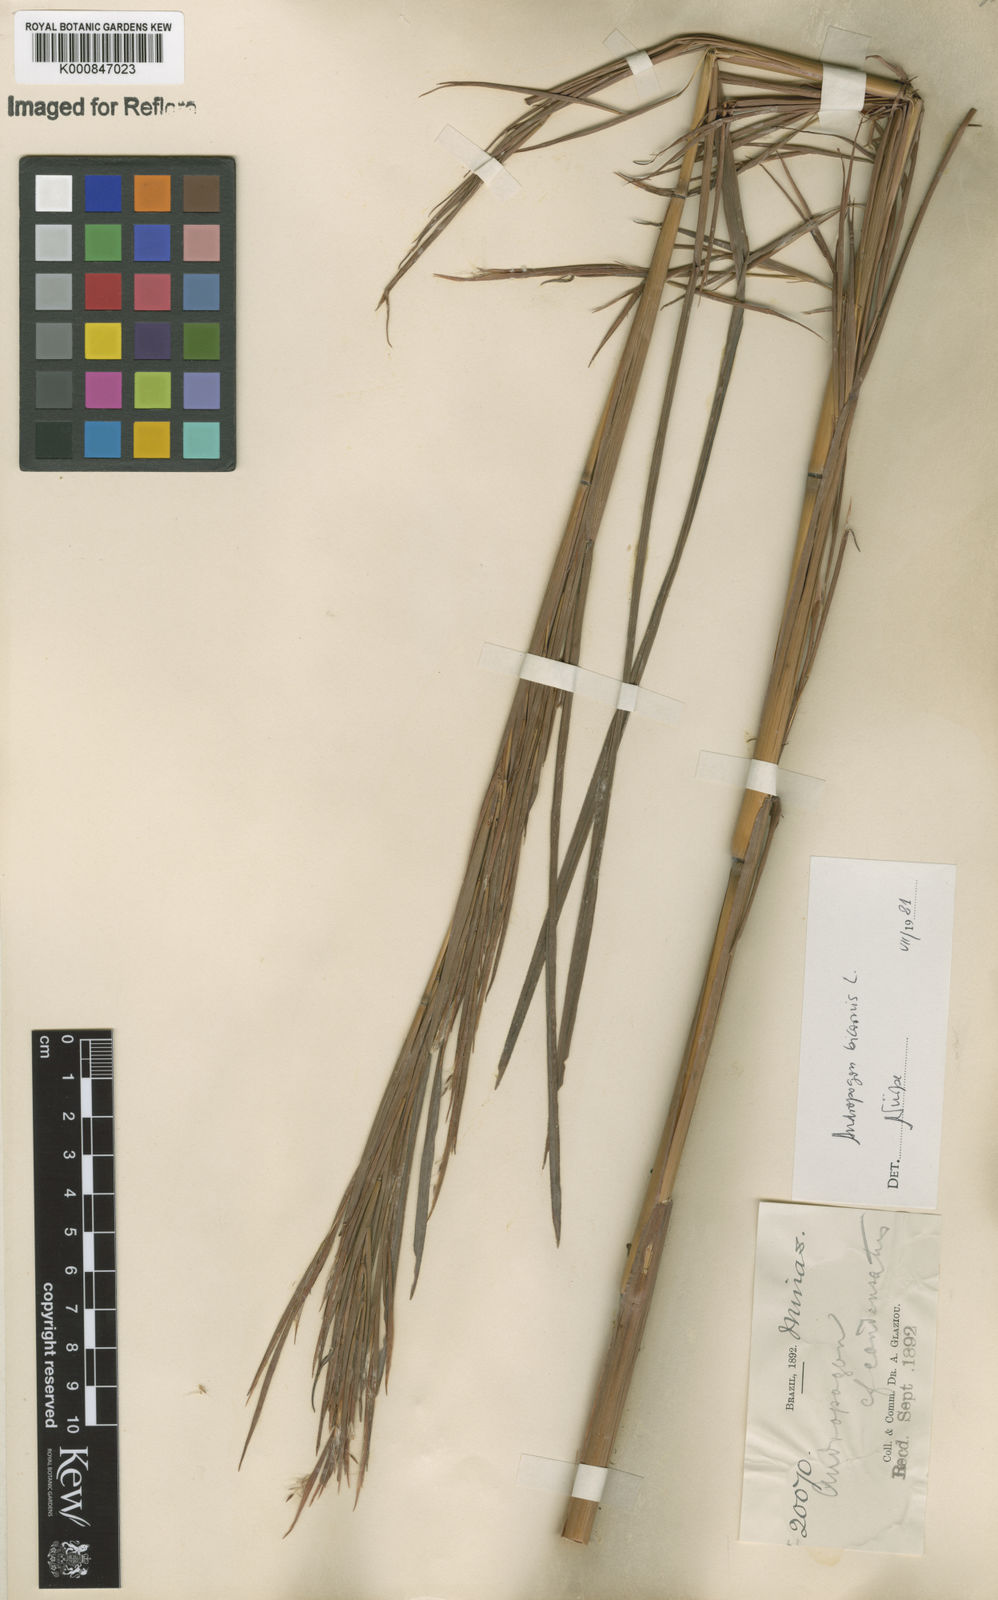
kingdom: Plantae
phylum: Tracheophyta
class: Liliopsida
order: Poales
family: Poaceae
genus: Andropogon
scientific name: Andropogon
